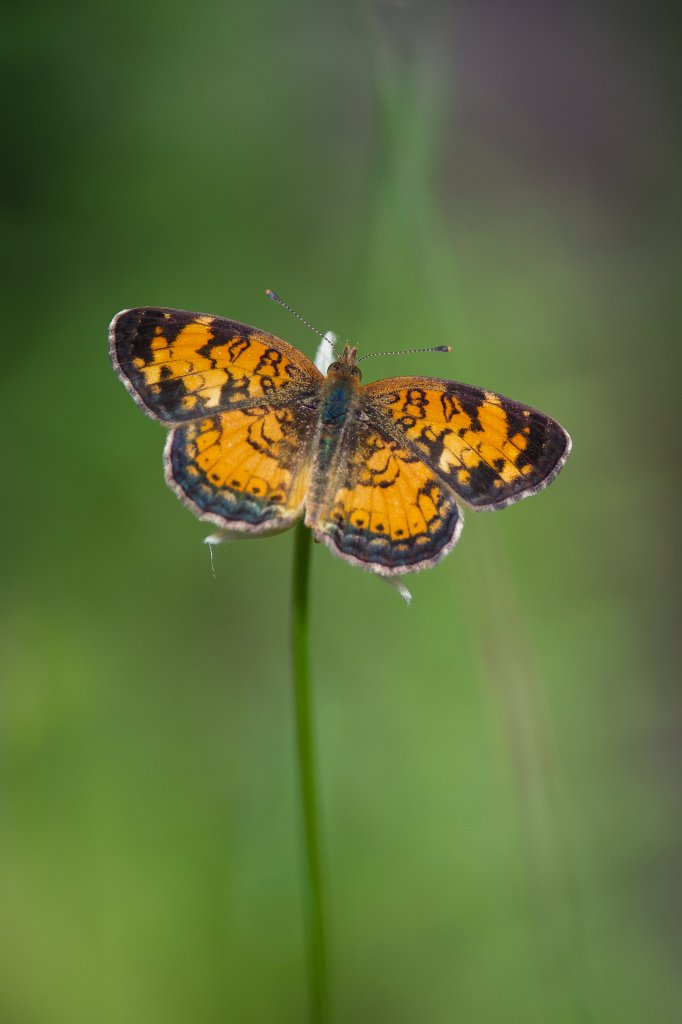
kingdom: Animalia
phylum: Arthropoda
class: Insecta
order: Lepidoptera
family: Nymphalidae
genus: Phyciodes
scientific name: Phyciodes tharos
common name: Northern Crescent
